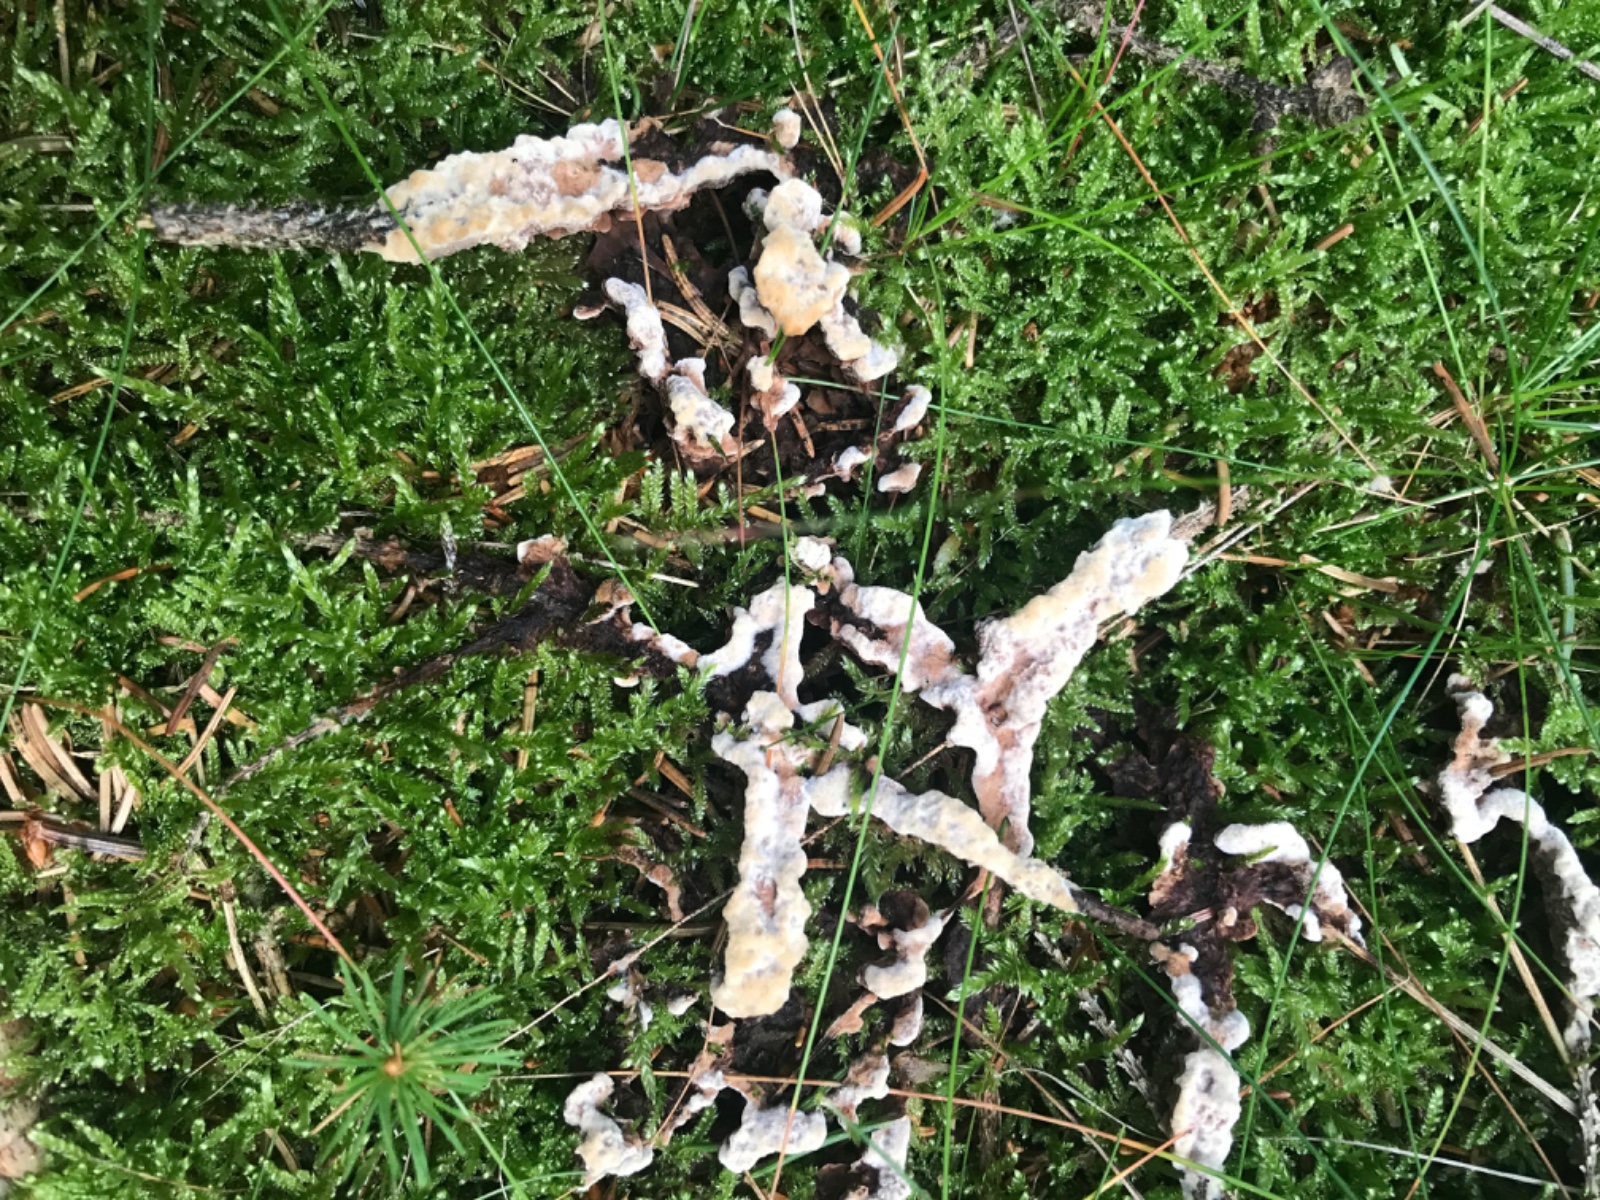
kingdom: Fungi
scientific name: Fungi
